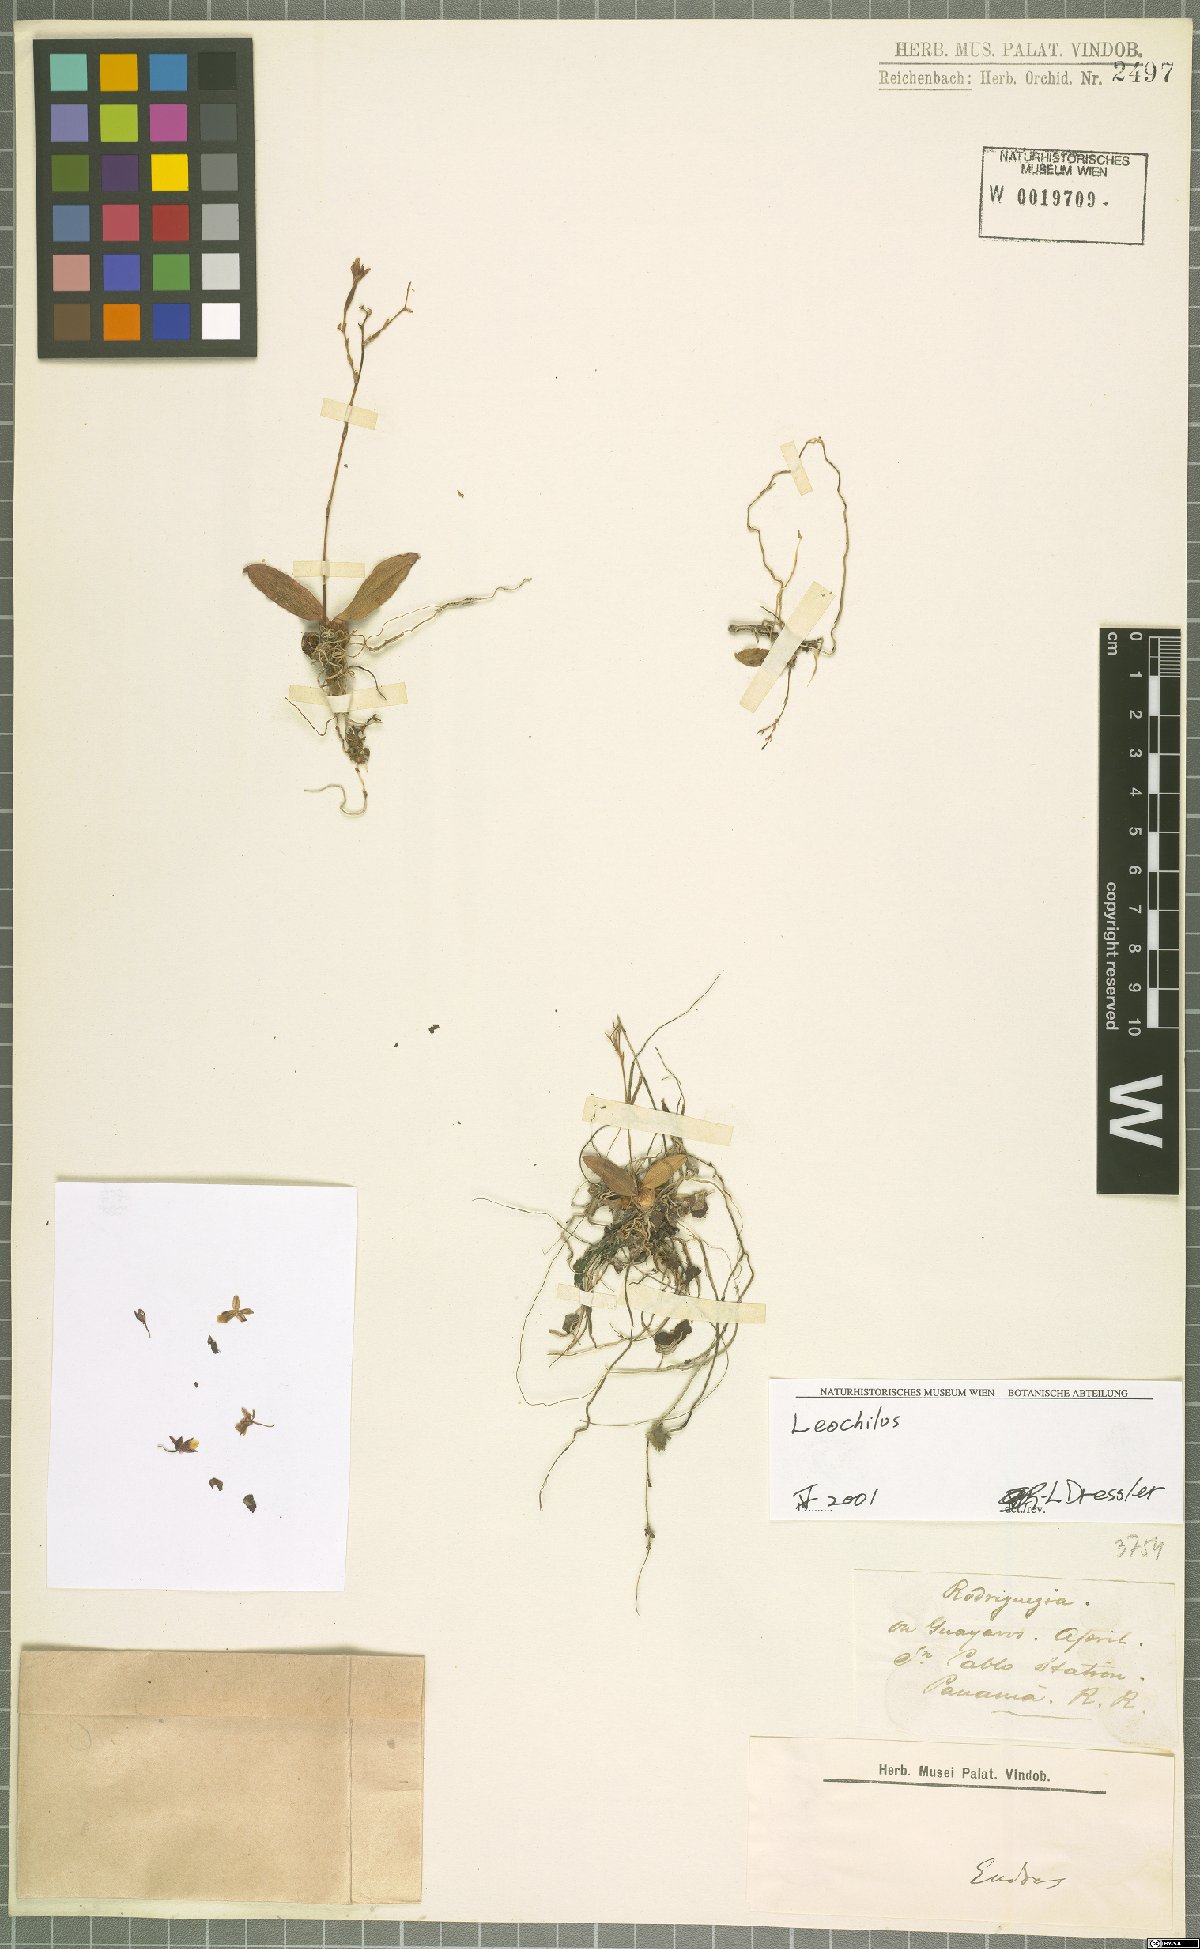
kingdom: Plantae
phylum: Tracheophyta
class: Liliopsida
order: Asparagales
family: Orchidaceae
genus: Leochilus
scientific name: Leochilus
